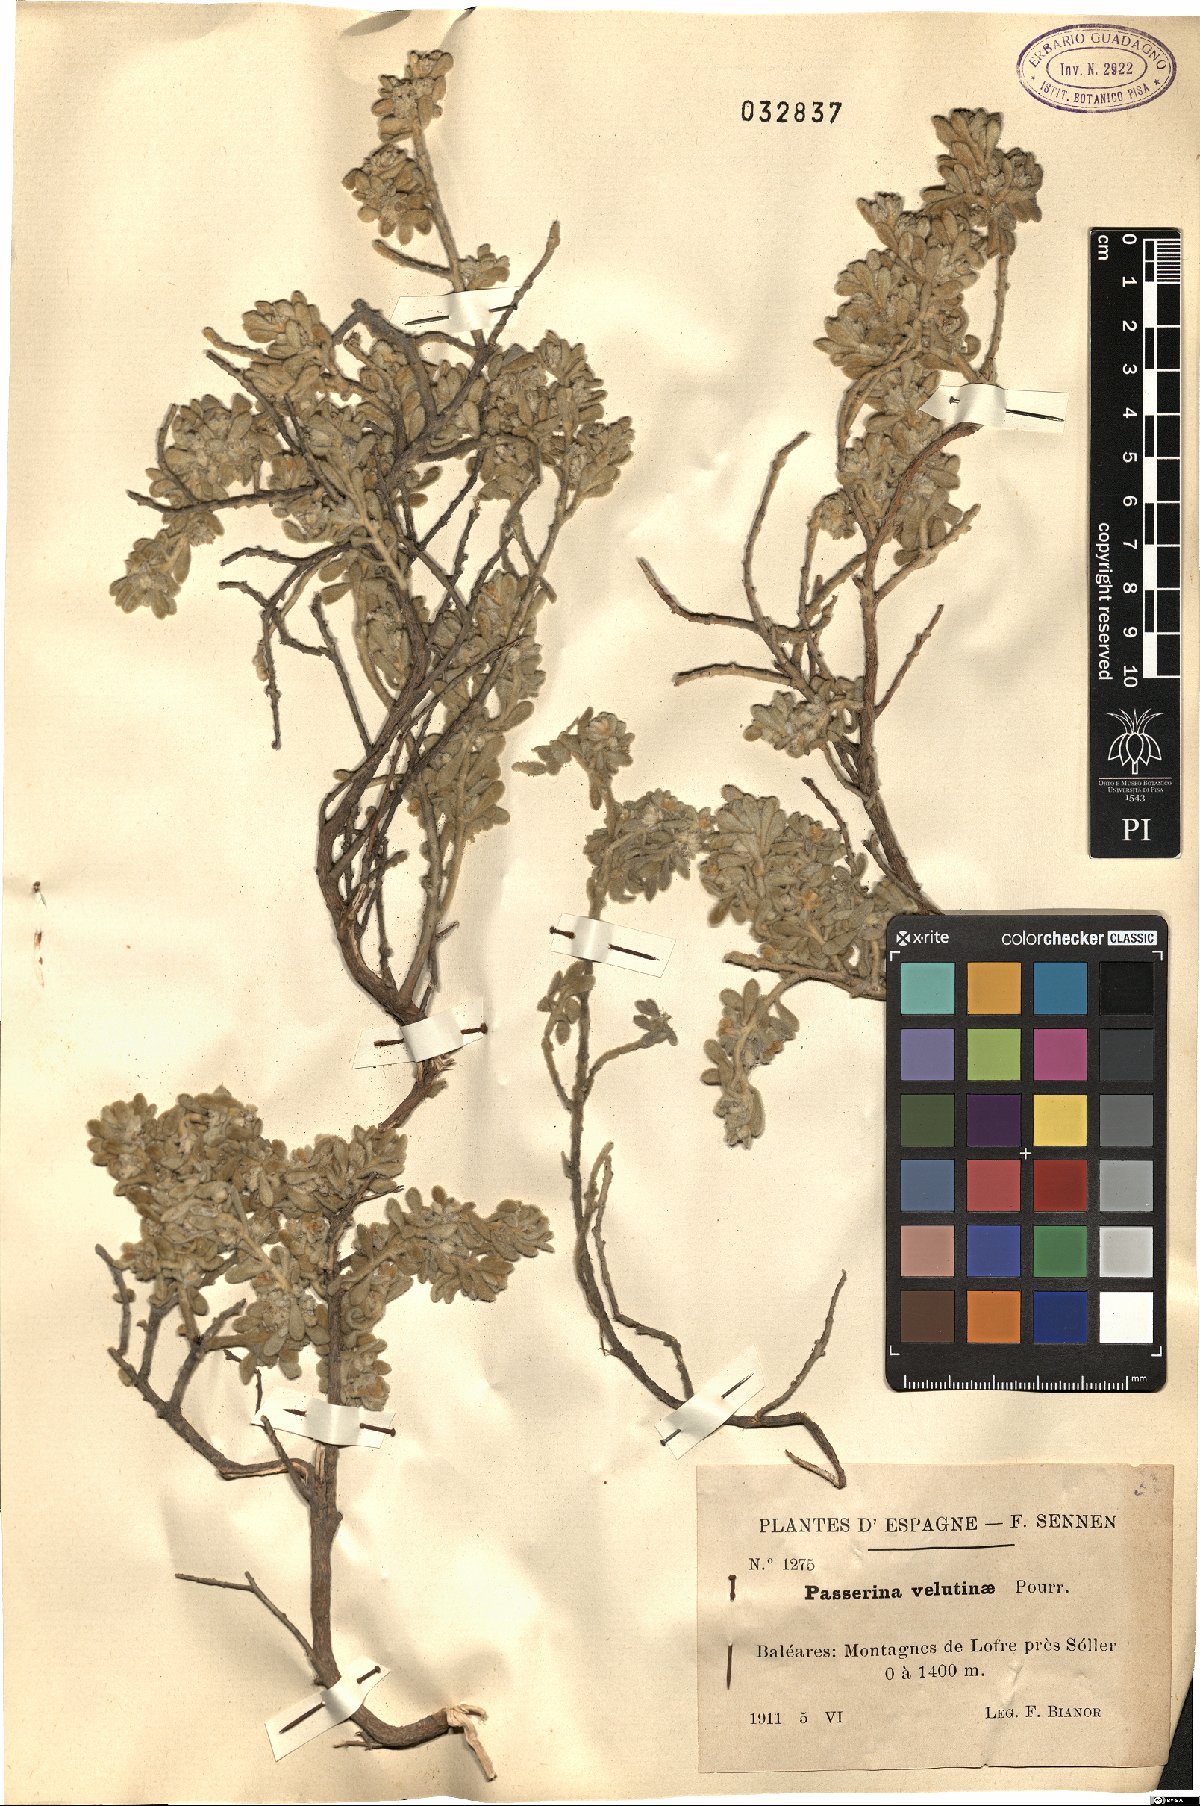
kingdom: Plantae
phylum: Tracheophyta
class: Magnoliopsida
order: Malvales
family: Thymelaeaceae
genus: Thymelaea
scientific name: Thymelaea velutina
